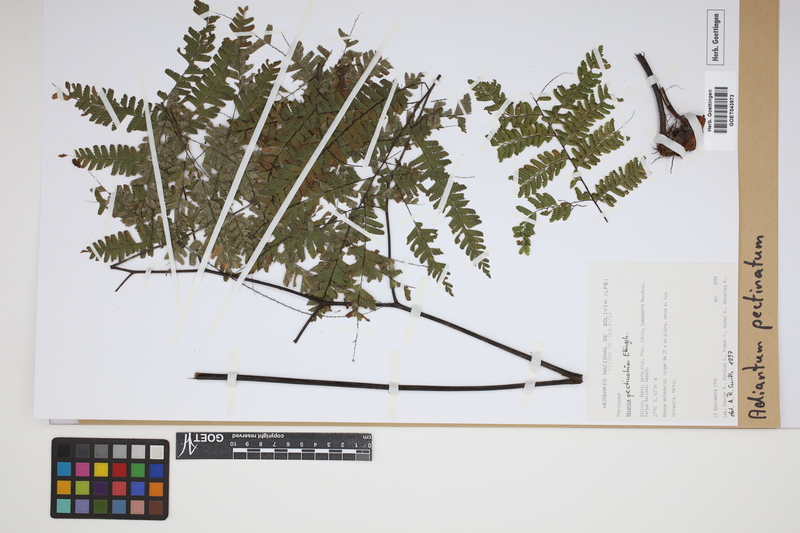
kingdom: Plantae
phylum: Tracheophyta
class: Polypodiopsida
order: Polypodiales
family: Pteridaceae
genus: Adiantum
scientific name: Adiantum pectinatum
